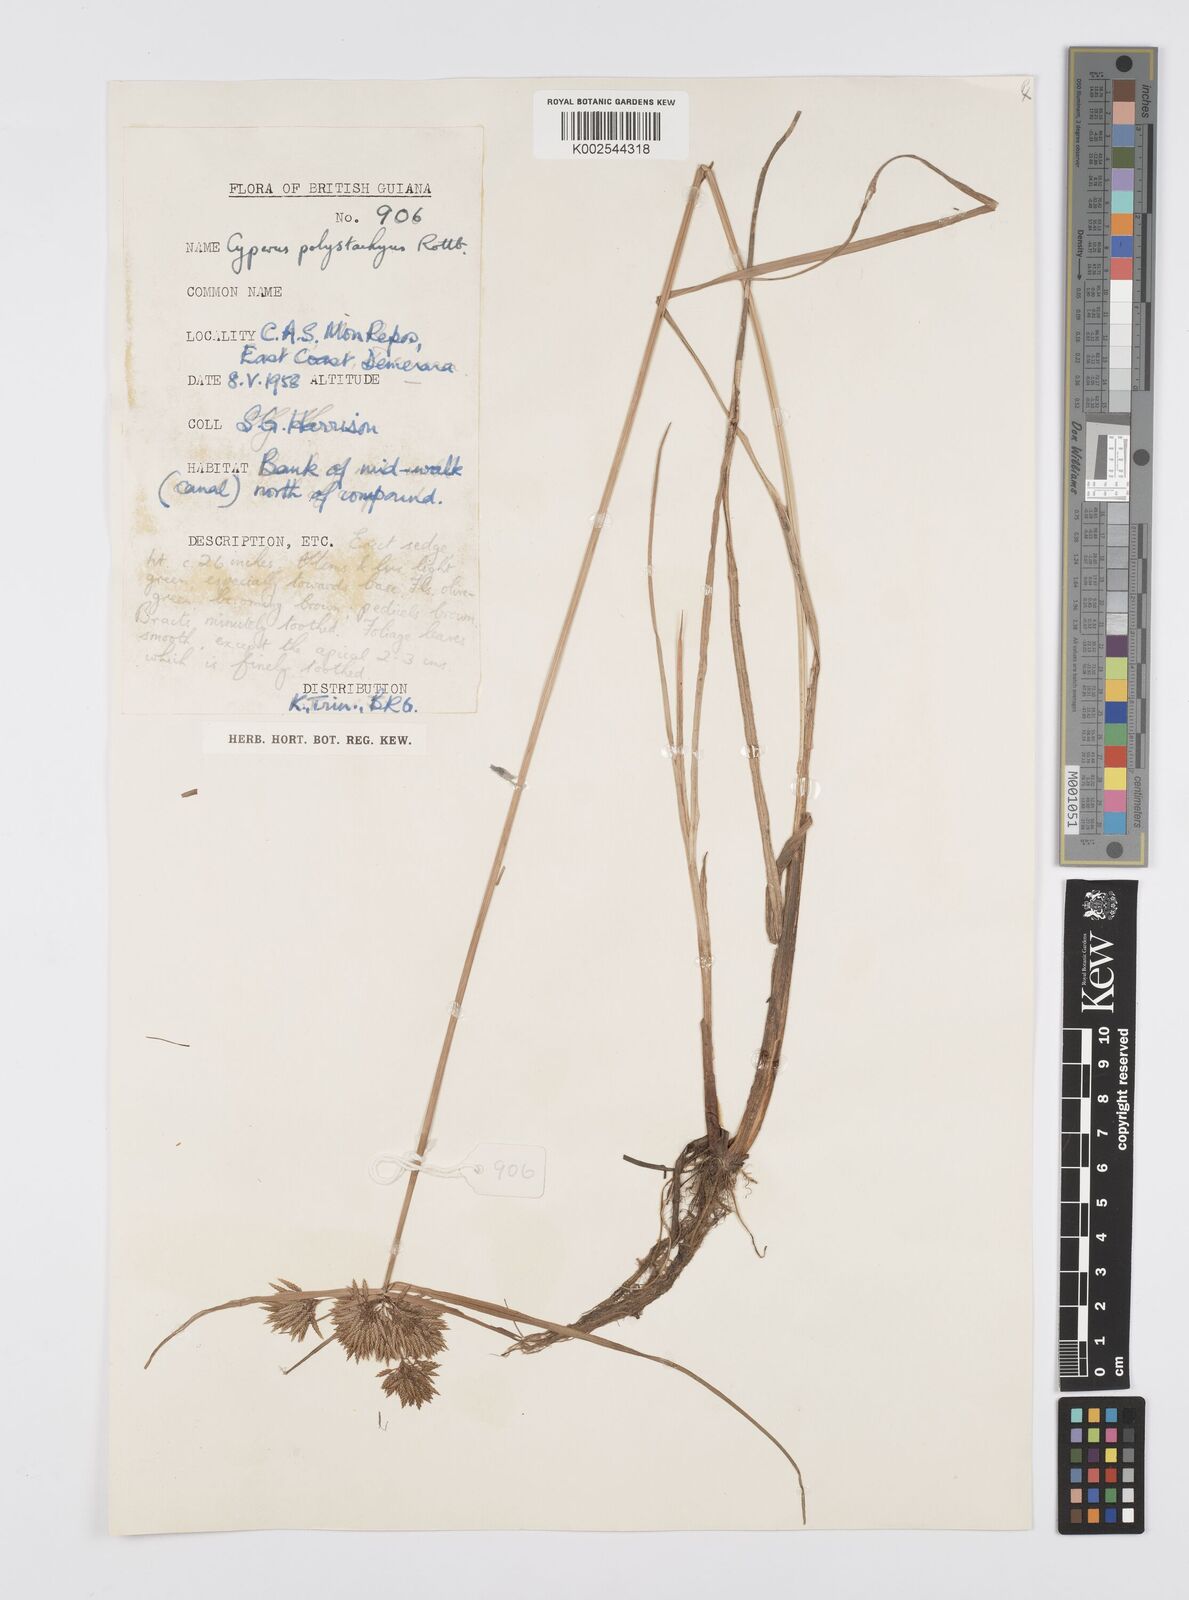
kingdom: Plantae
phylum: Tracheophyta
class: Liliopsida
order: Poales
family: Cyperaceae
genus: Cyperus
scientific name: Cyperus polystachyos
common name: Bunchy flat sedge
